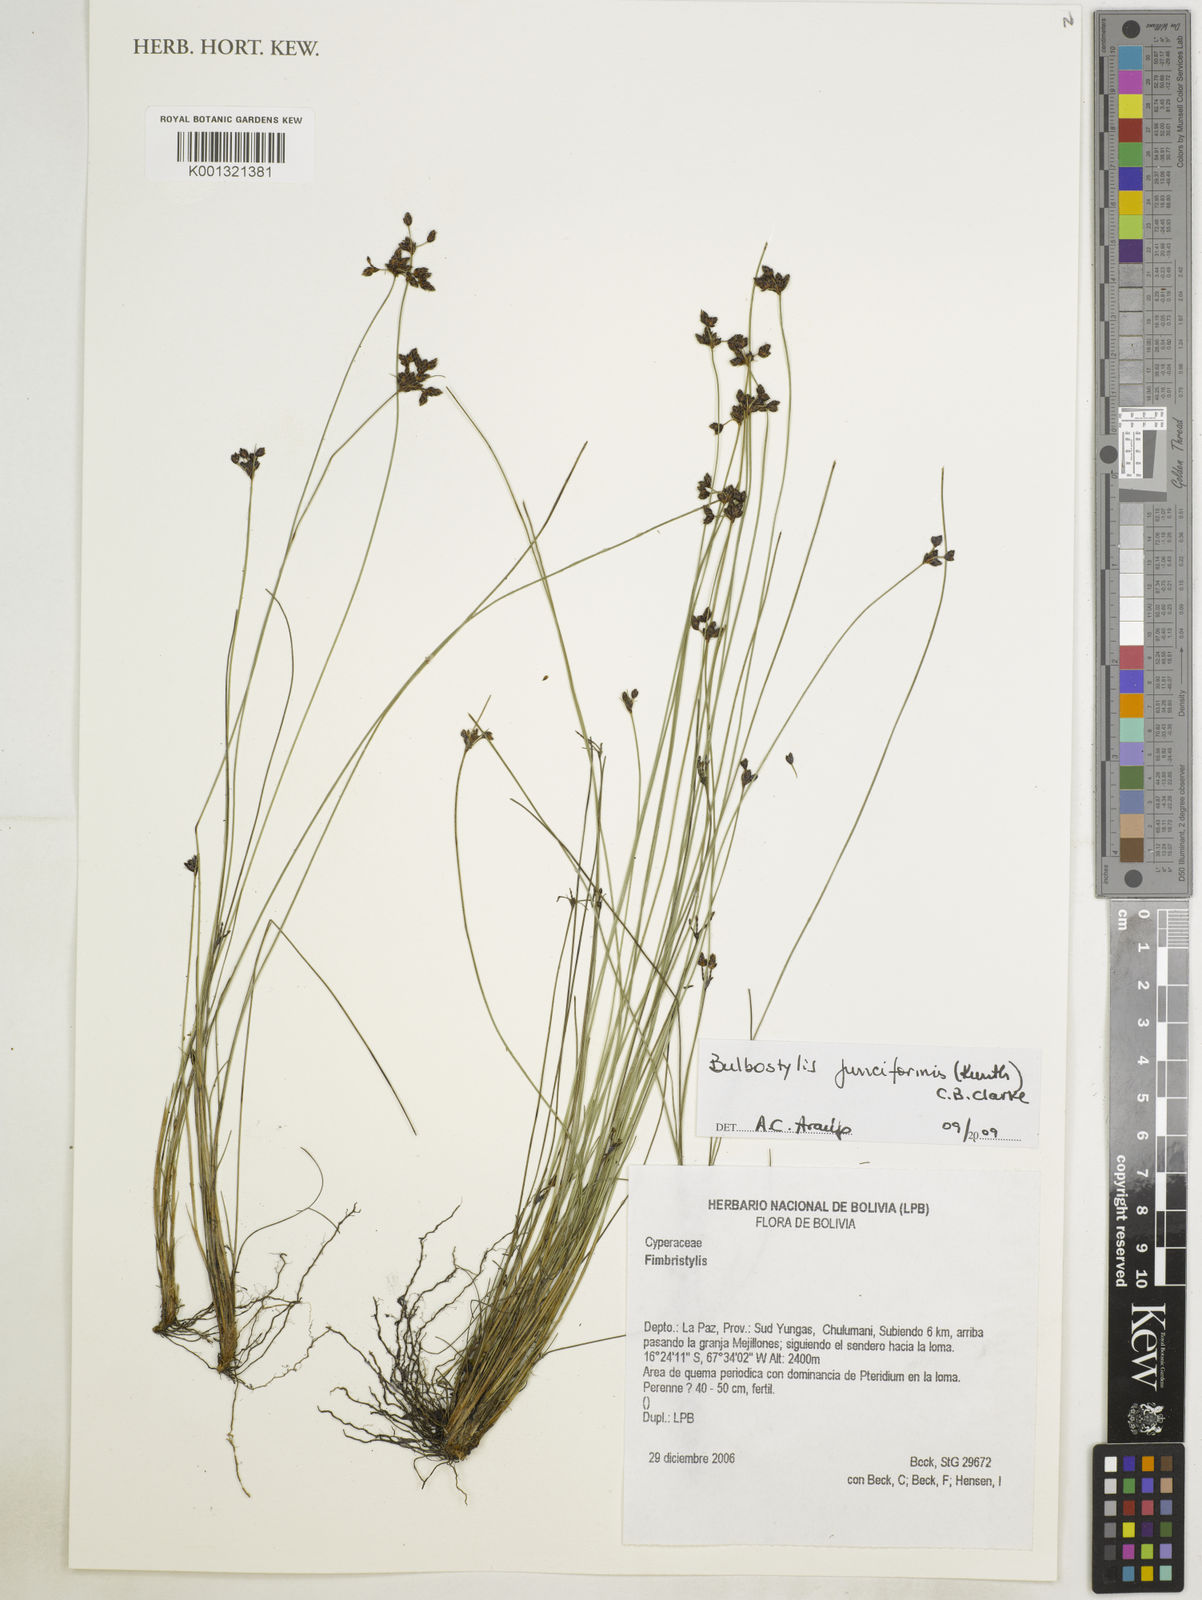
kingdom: Plantae
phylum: Tracheophyta
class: Liliopsida
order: Poales
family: Cyperaceae
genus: Bulbostylis
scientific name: Bulbostylis junciformis
